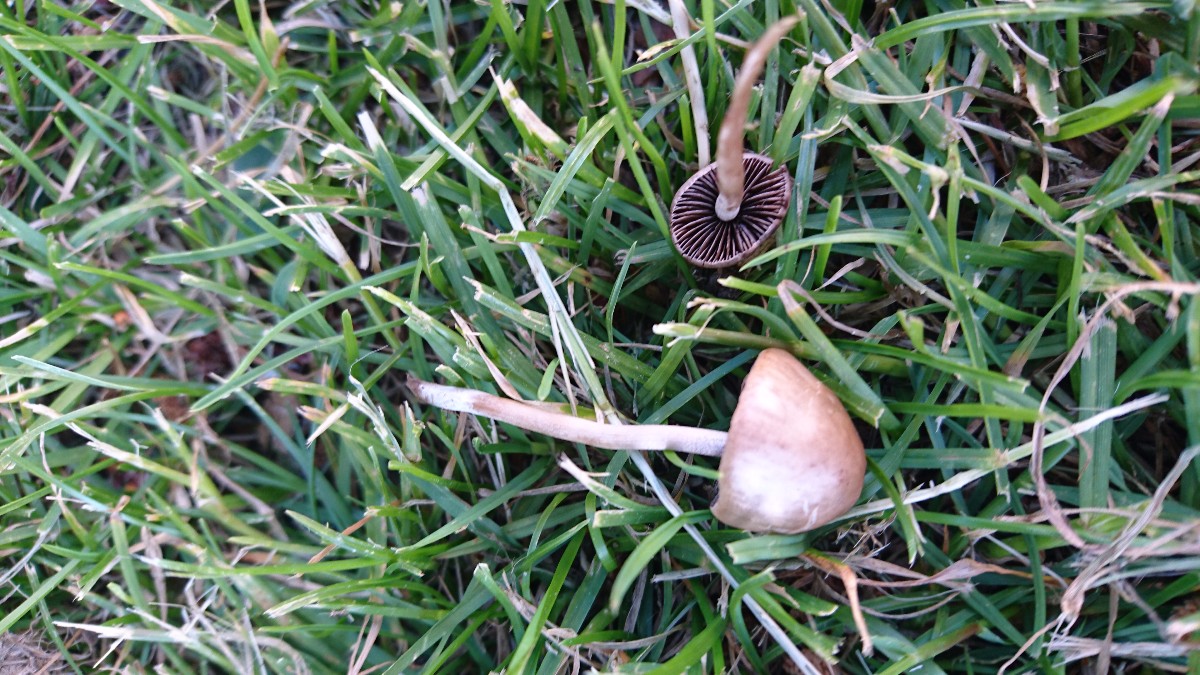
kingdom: Fungi
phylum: Basidiomycota
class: Agaricomycetes
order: Agaricales
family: Bolbitiaceae
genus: Panaeolina
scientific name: Panaeolina foenisecii
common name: høslætsvamp
